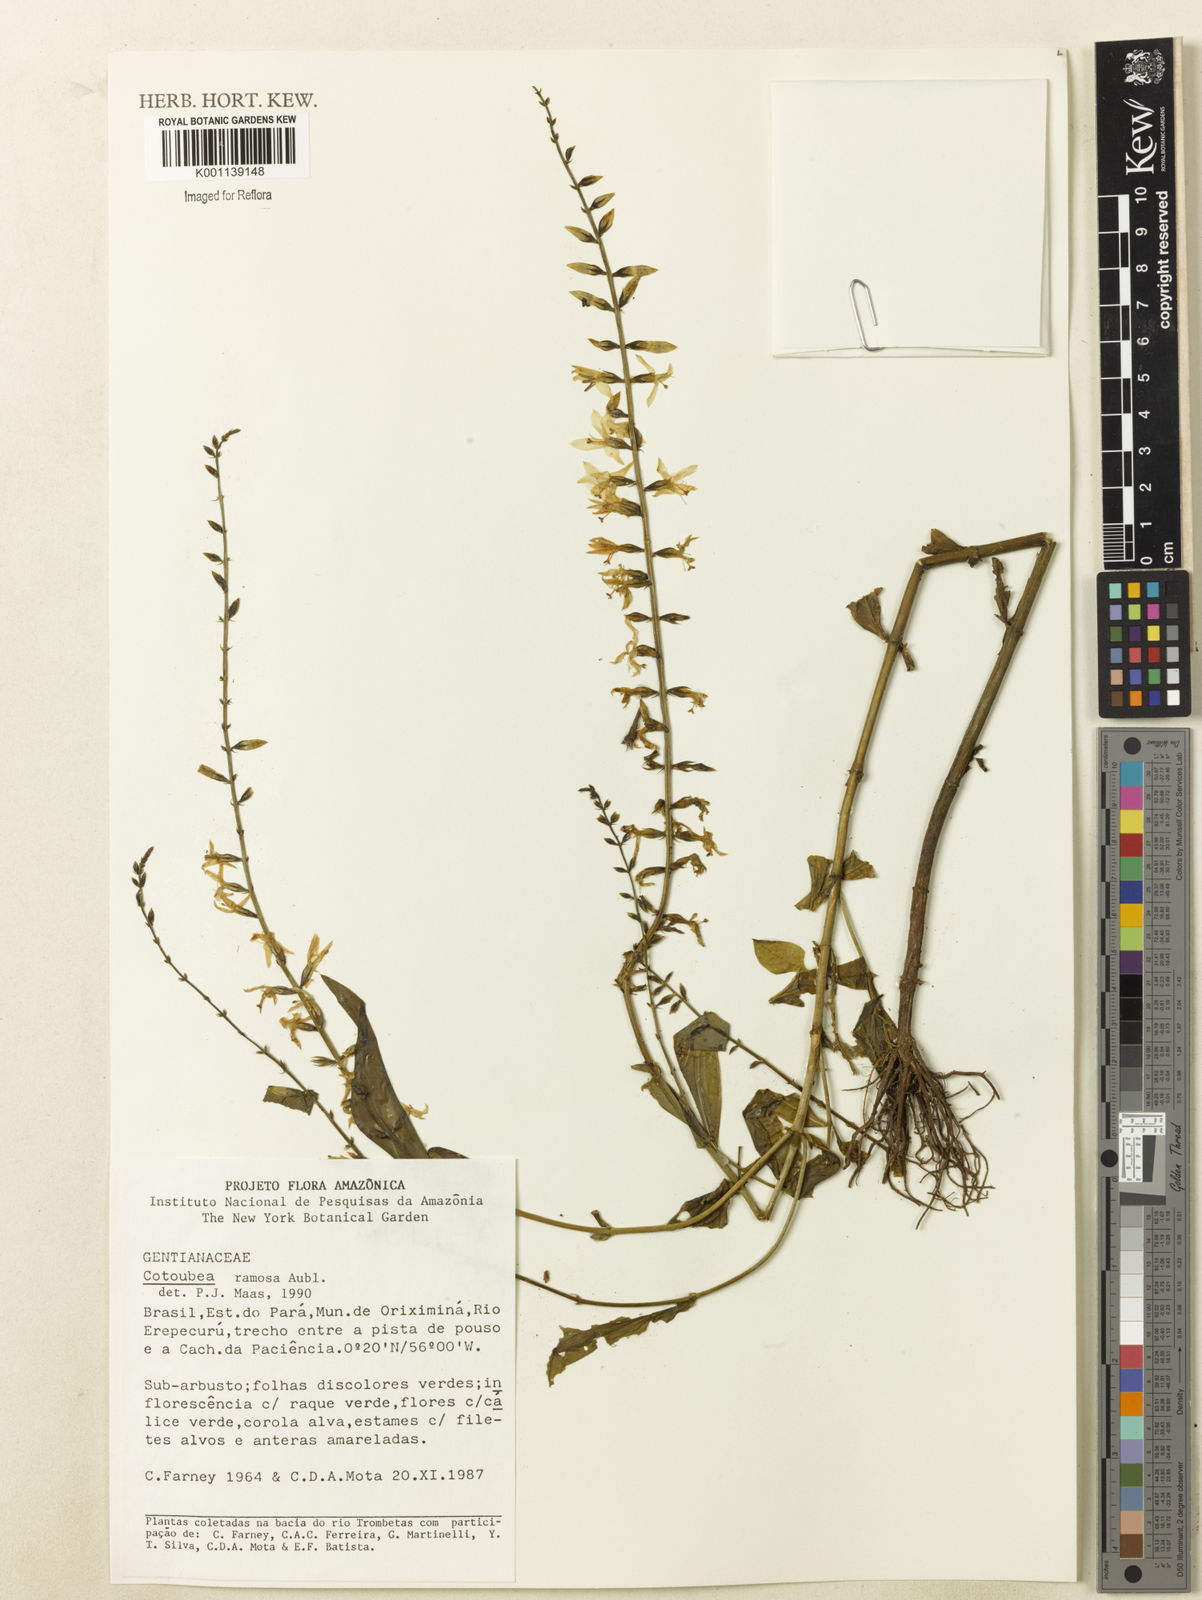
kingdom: Plantae
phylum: Tracheophyta
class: Magnoliopsida
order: Gentianales
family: Gentianaceae
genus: Coutoubea
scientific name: Coutoubea ramosa
